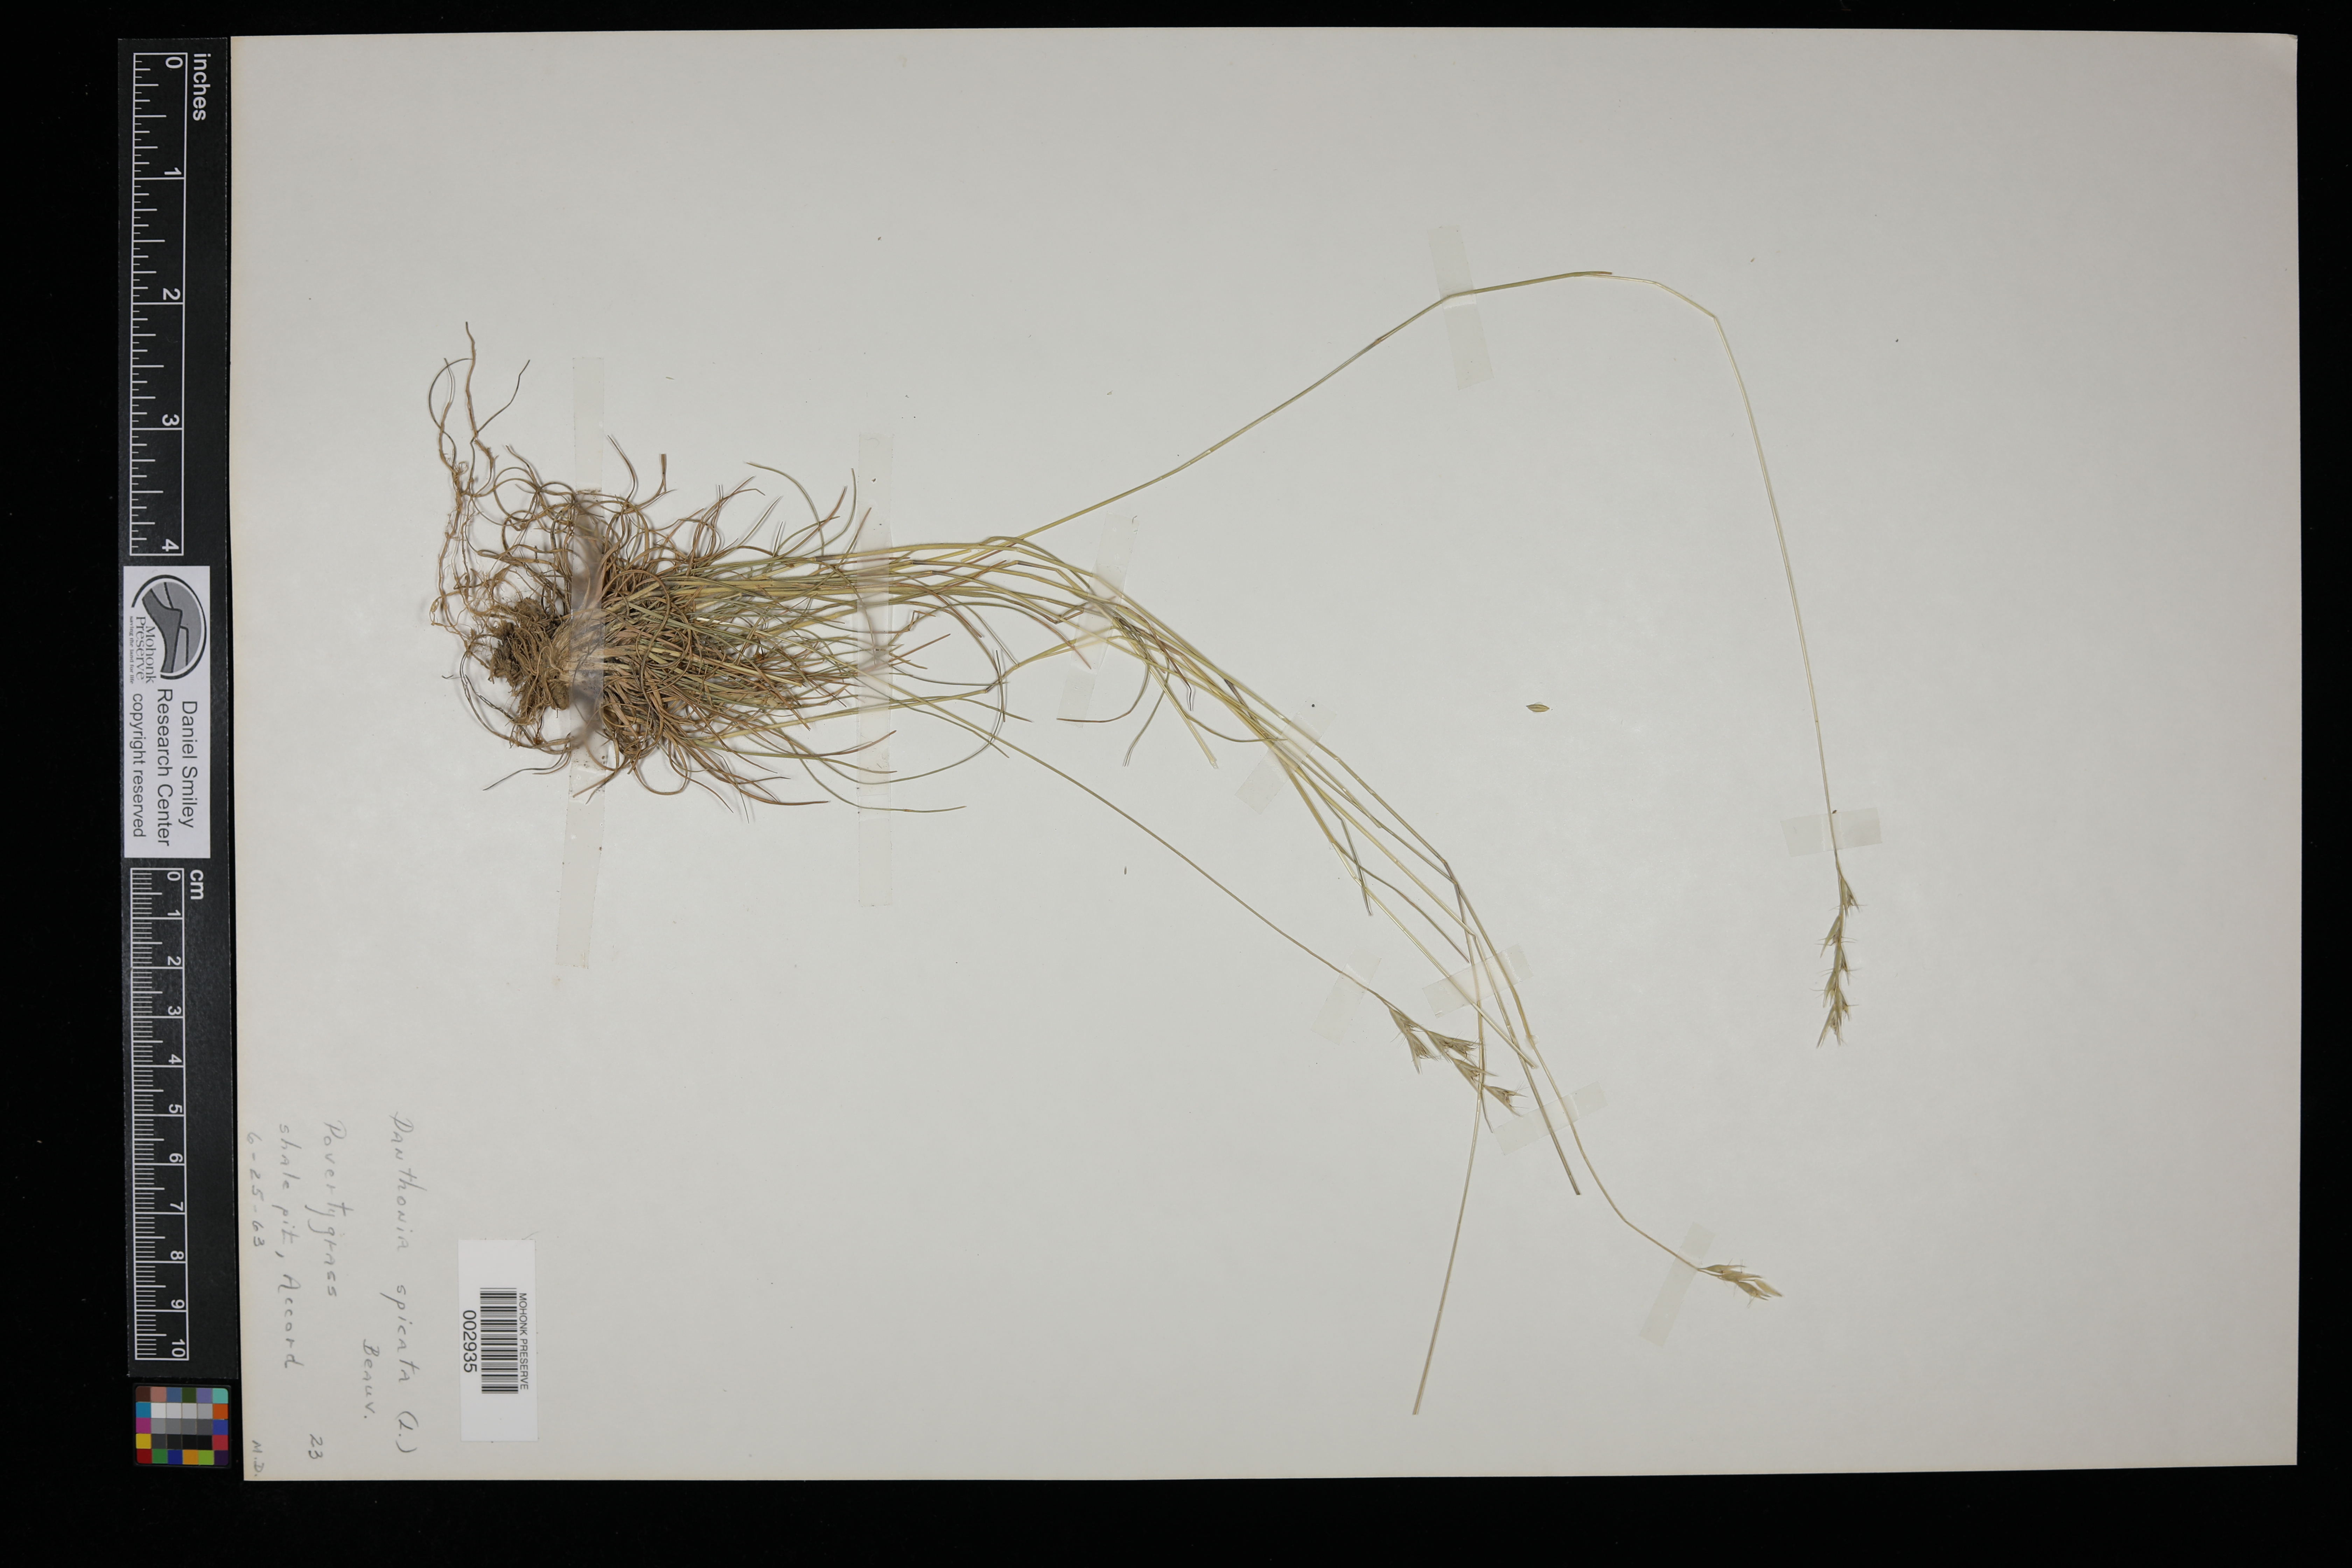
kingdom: Plantae
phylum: Tracheophyta
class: Liliopsida
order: Poales
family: Poaceae
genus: Danthonia
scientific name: Danthonia spicata
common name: Common wild oatgrass
